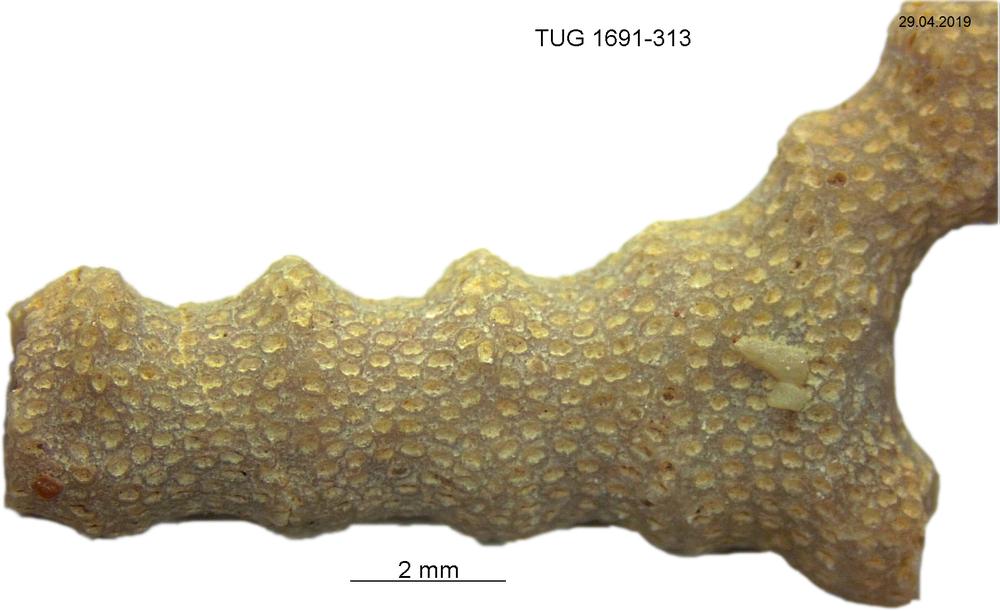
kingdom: Animalia
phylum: Bryozoa
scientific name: Bryozoa
